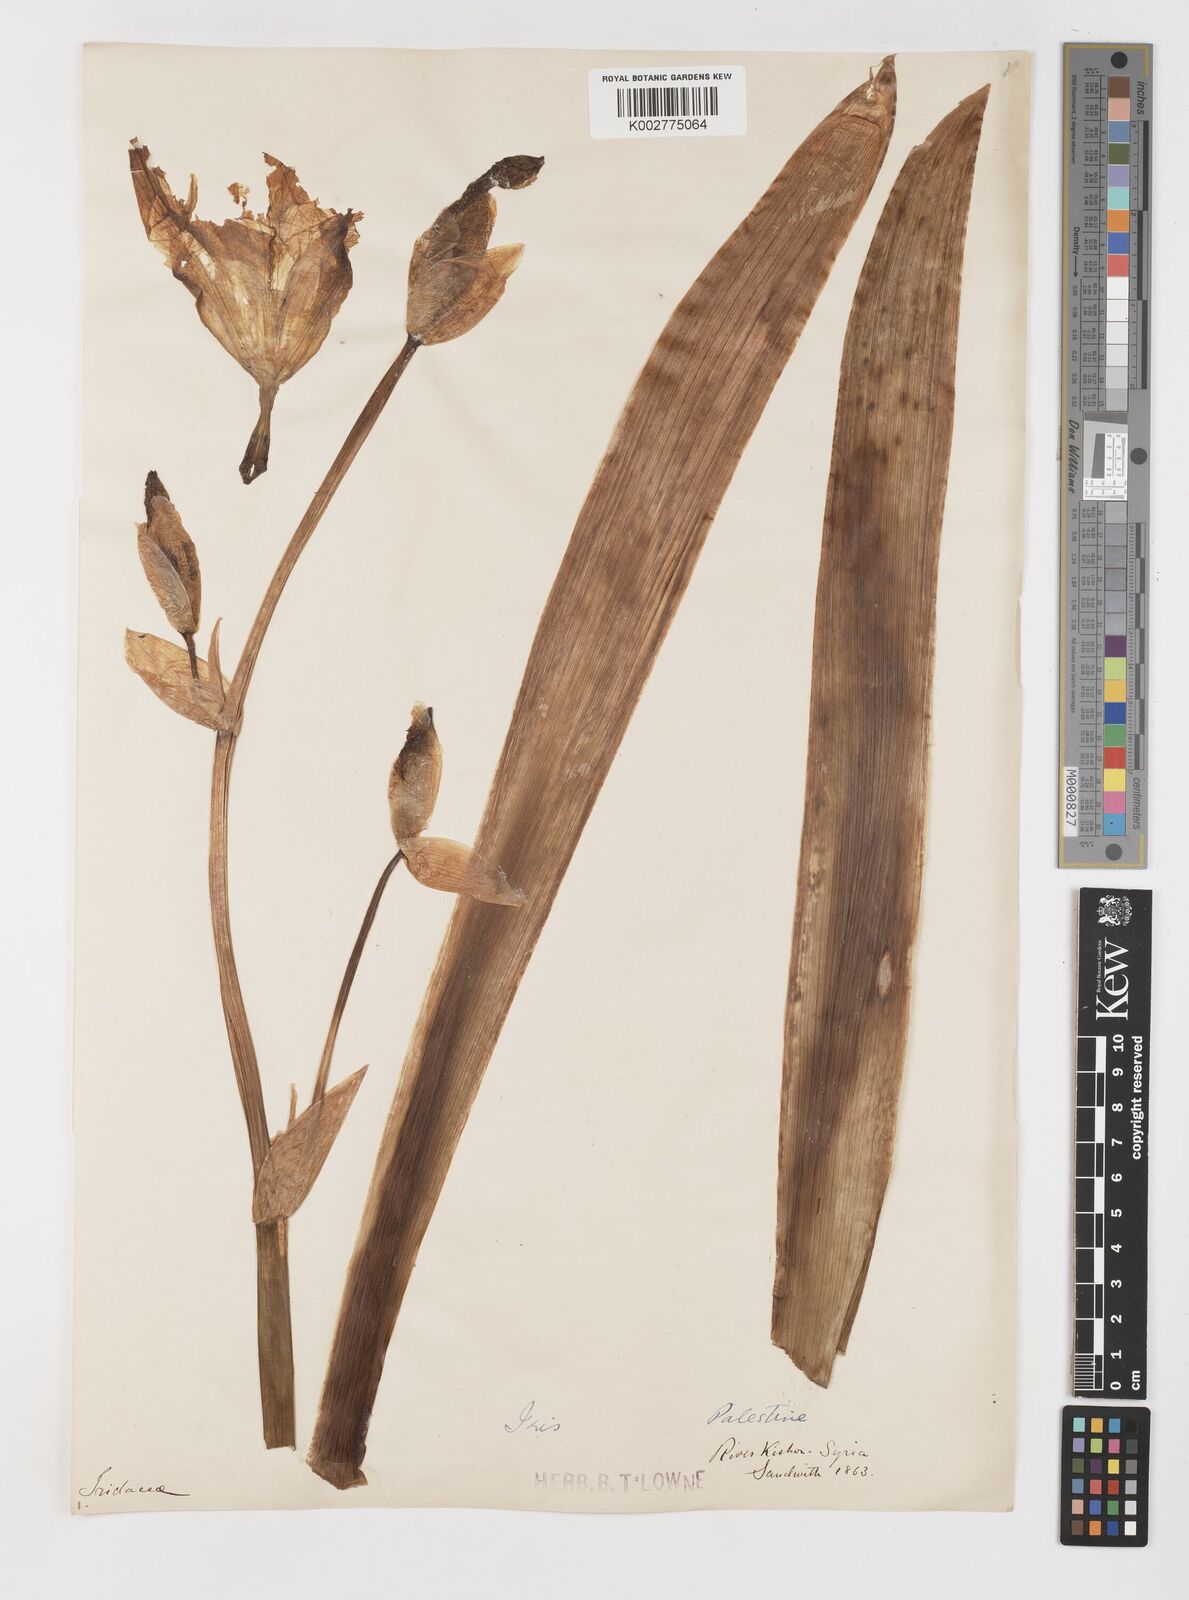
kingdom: Plantae
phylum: Tracheophyta
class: Liliopsida
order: Asparagales
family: Iridaceae
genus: Iris
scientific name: Iris germanica
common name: German iris
